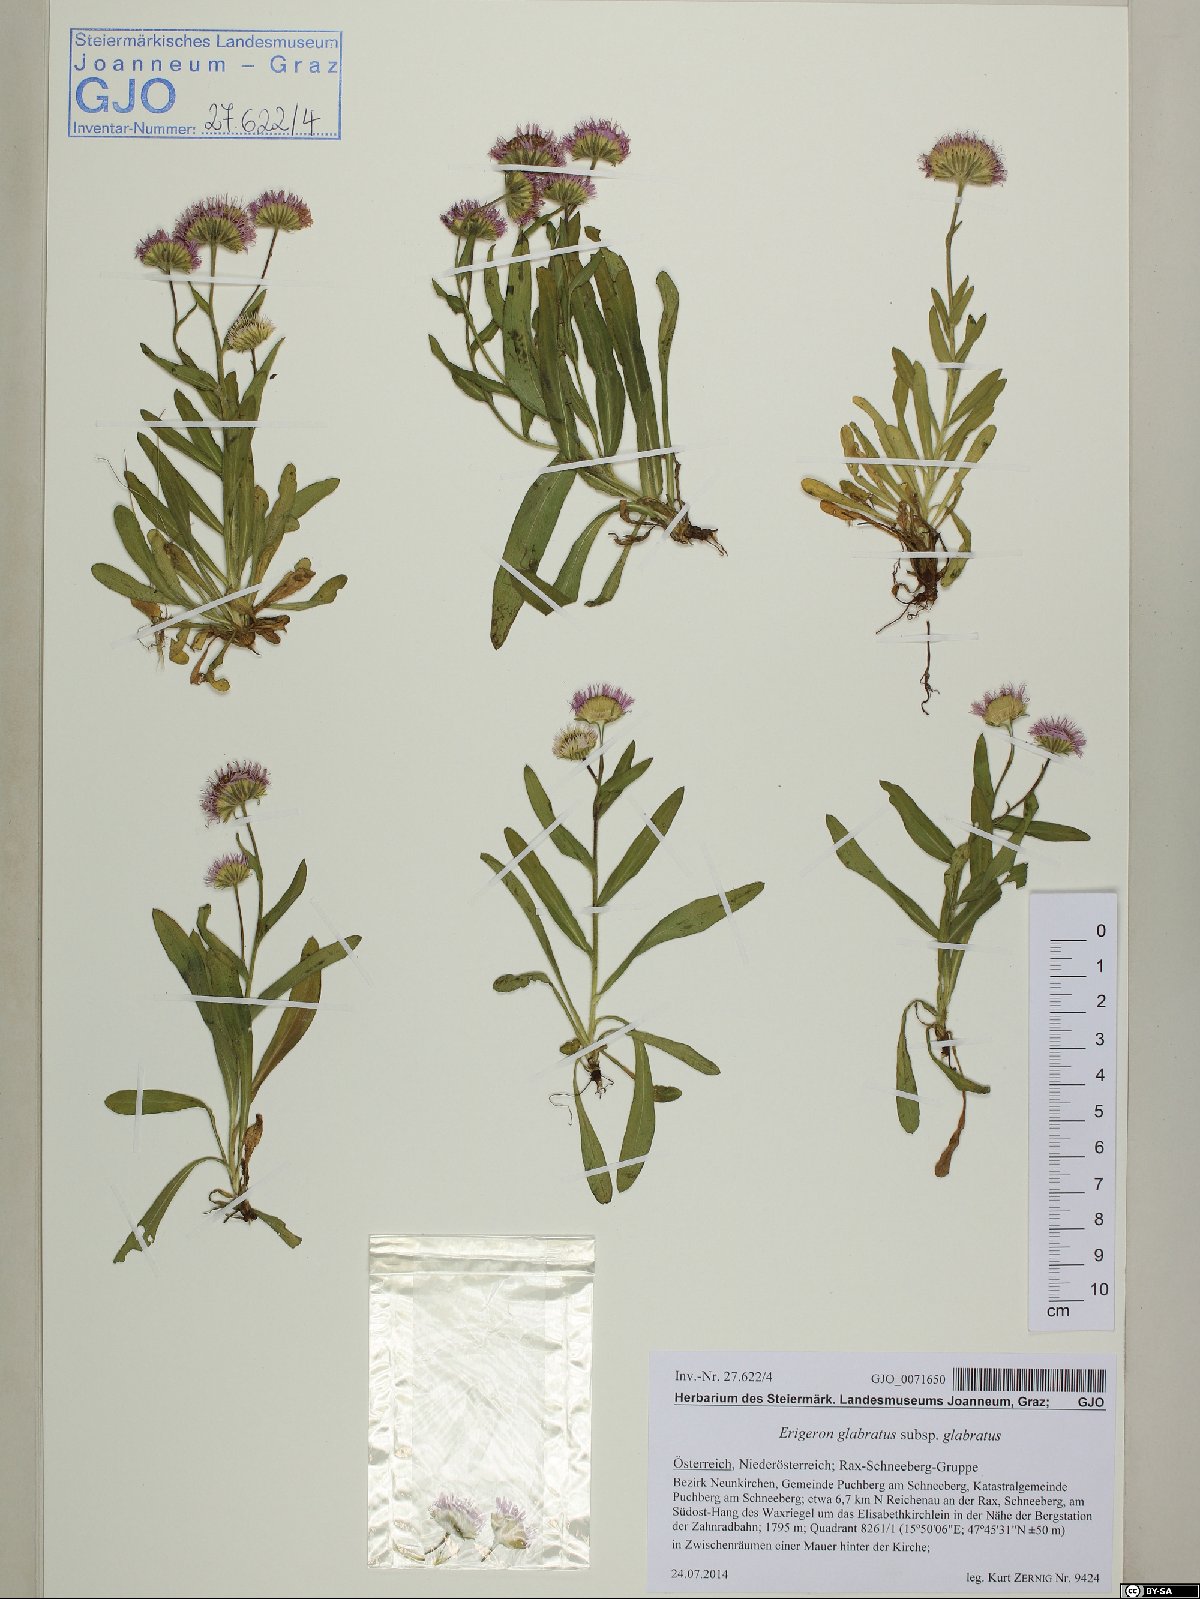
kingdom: Plantae
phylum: Tracheophyta
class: Magnoliopsida
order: Asterales
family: Asteraceae
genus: Erigeron
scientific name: Erigeron glabratus
